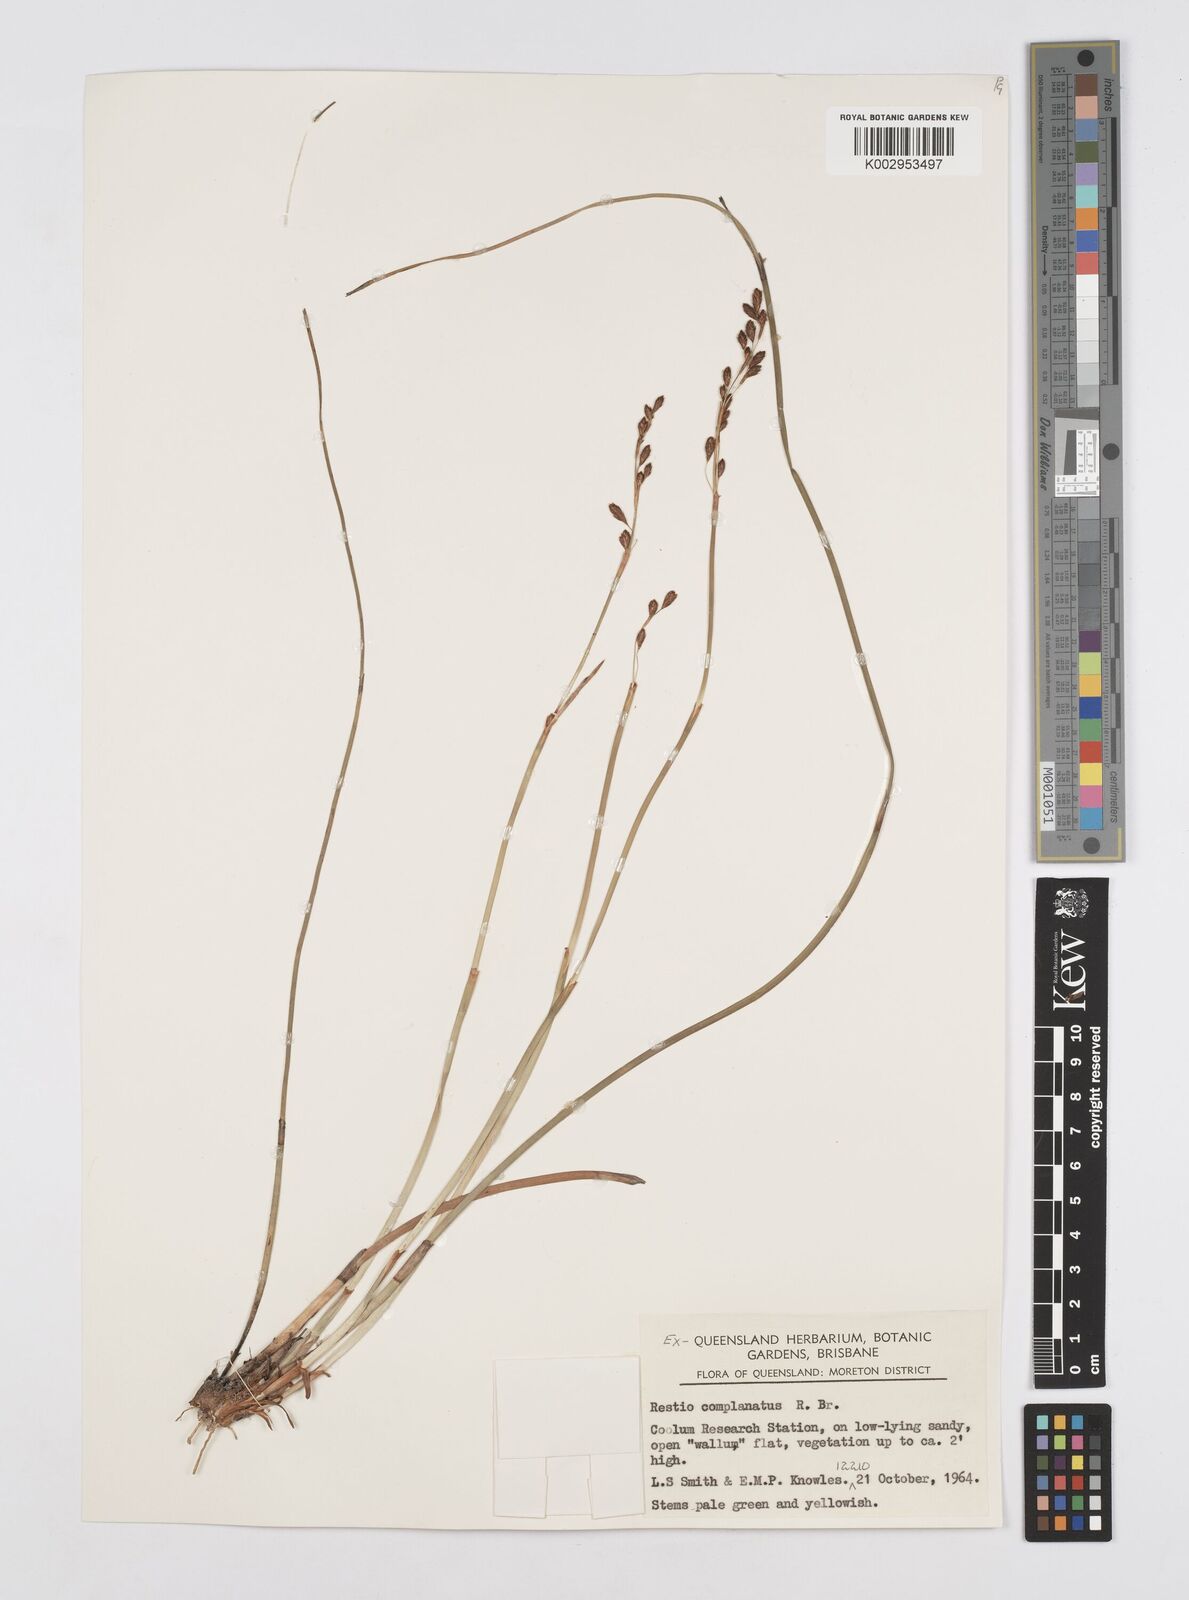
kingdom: Plantae
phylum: Tracheophyta
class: Liliopsida
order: Poales
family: Restionaceae
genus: Eurychorda
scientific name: Eurychorda complanata
